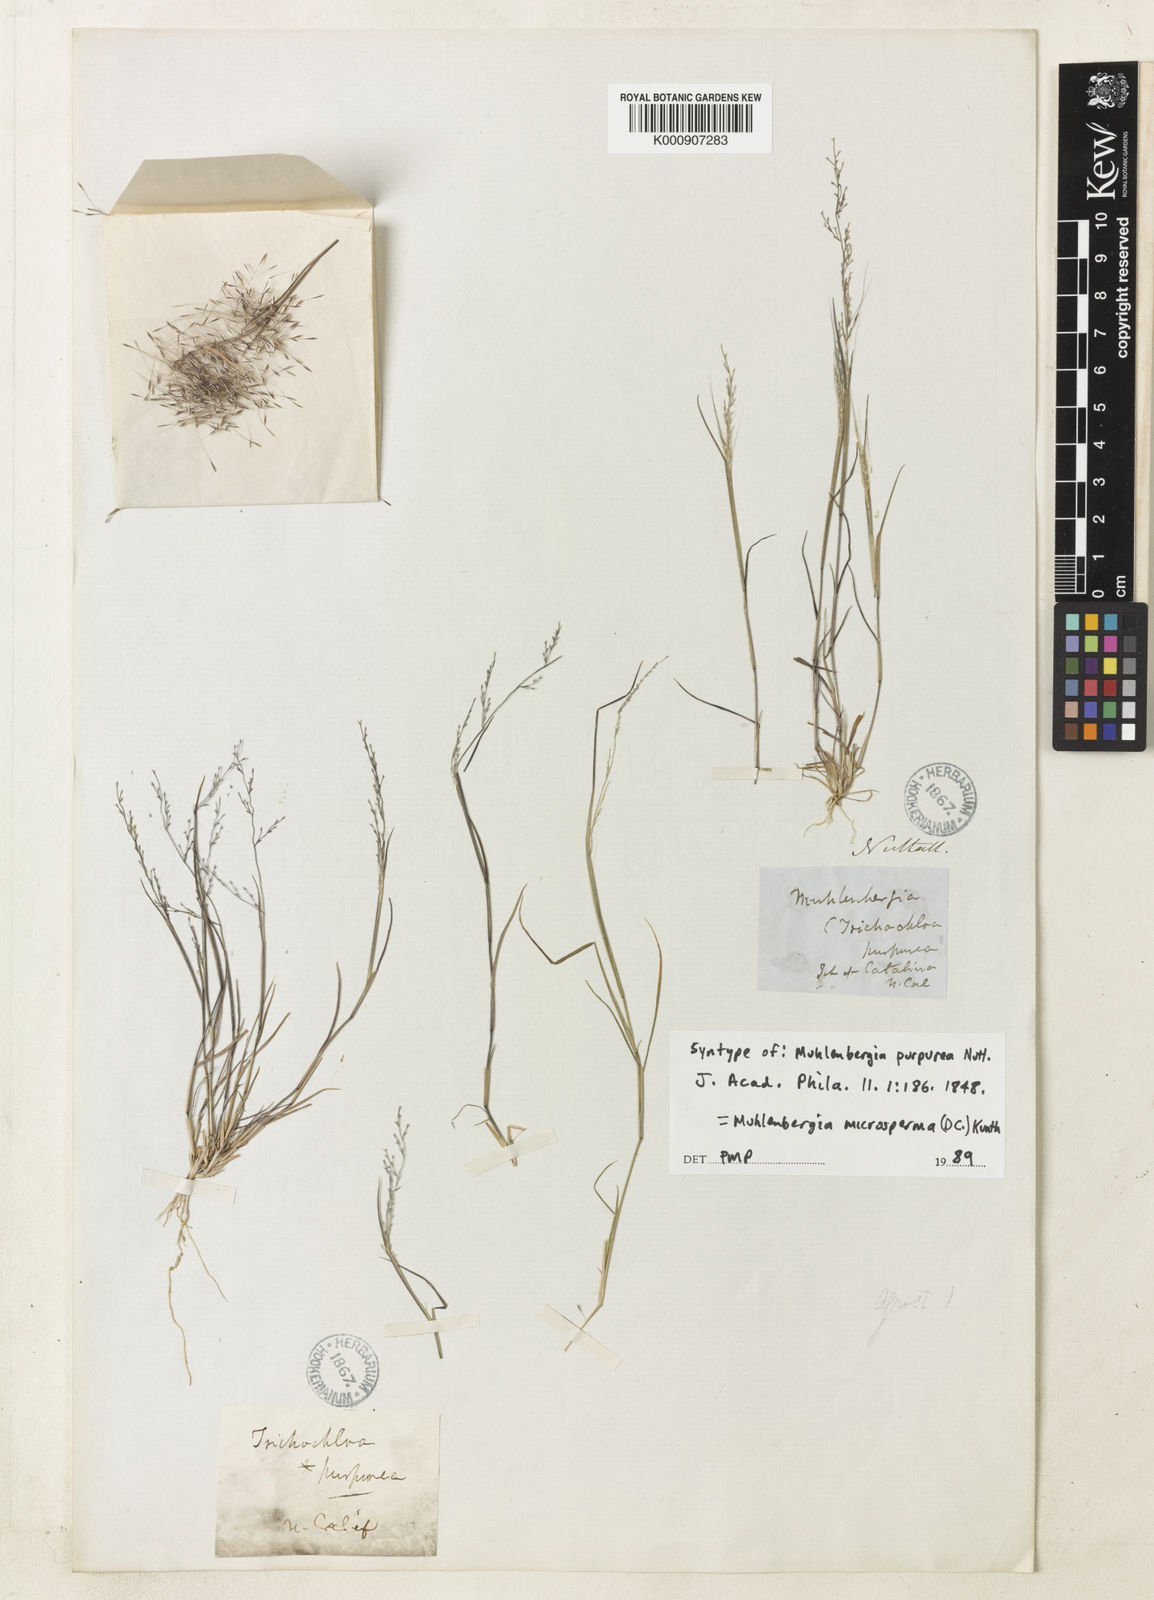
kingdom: Plantae
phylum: Tracheophyta
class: Liliopsida
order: Poales
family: Poaceae
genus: Muhlenbergia
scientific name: Muhlenbergia
